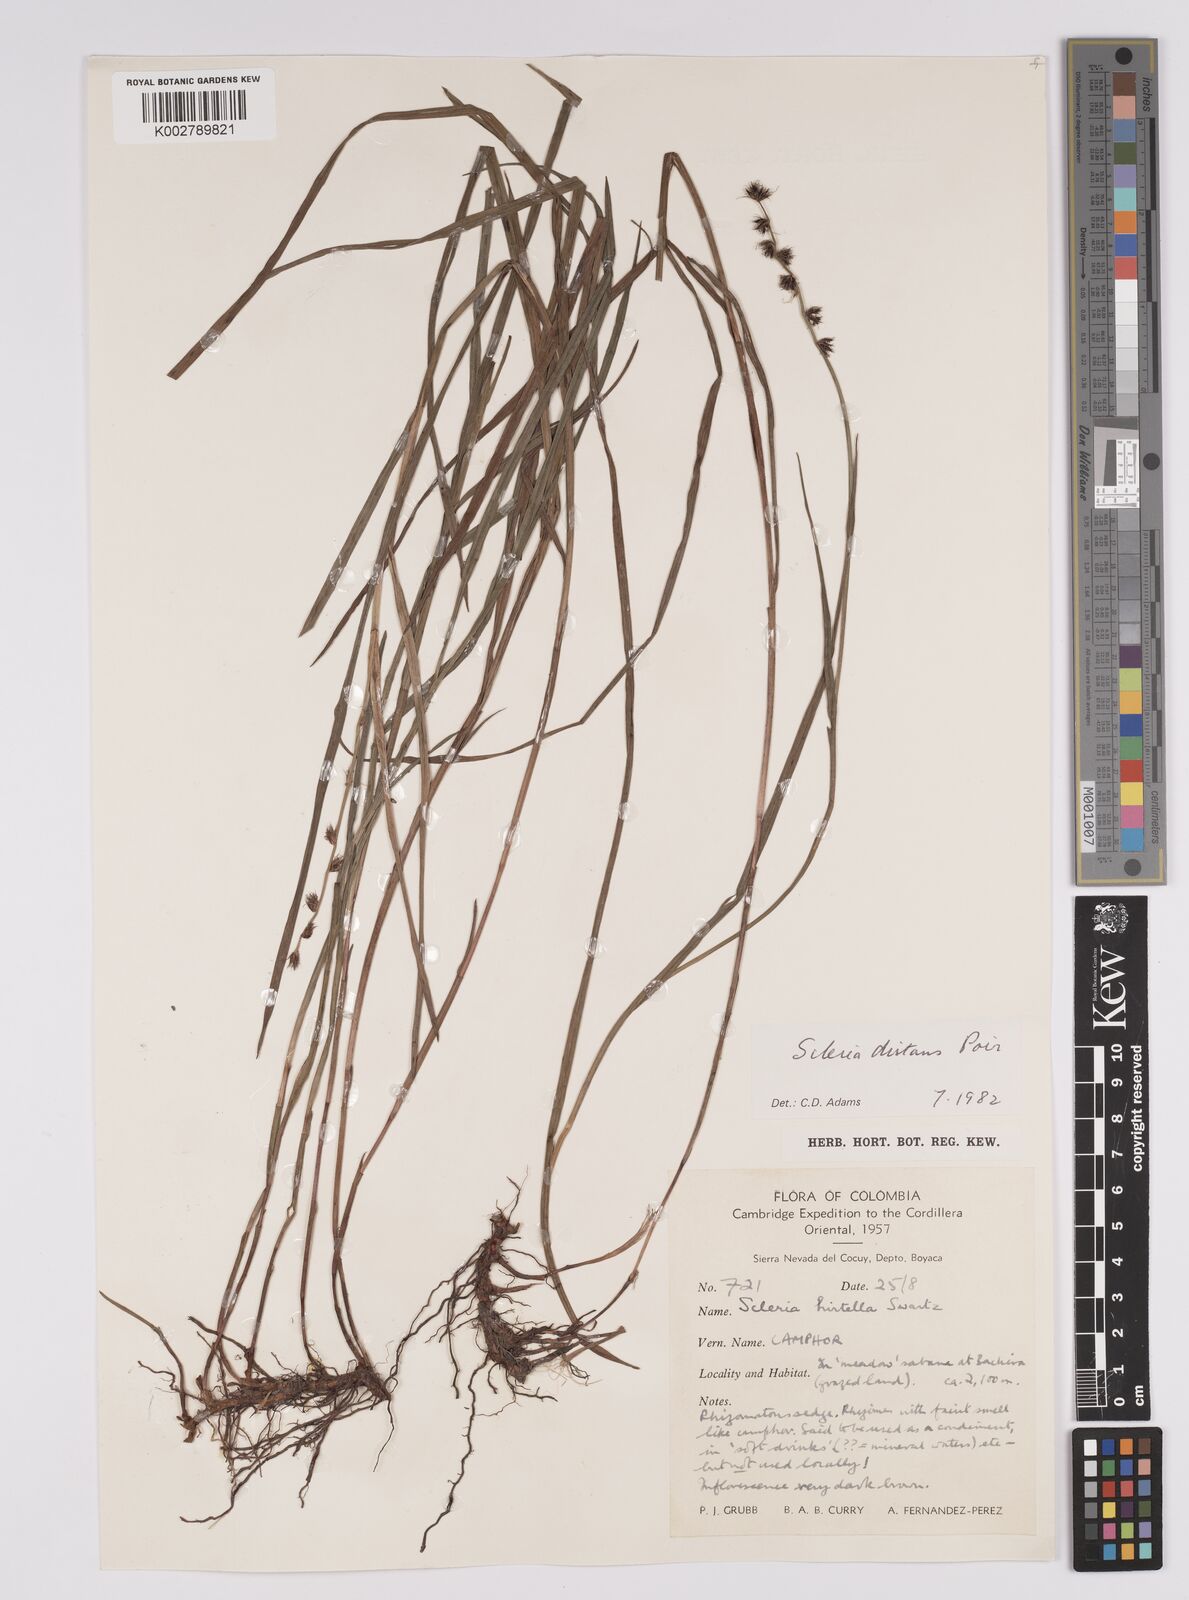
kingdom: Plantae
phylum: Tracheophyta
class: Liliopsida
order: Poales
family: Cyperaceae
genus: Scleria
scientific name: Scleria distans
